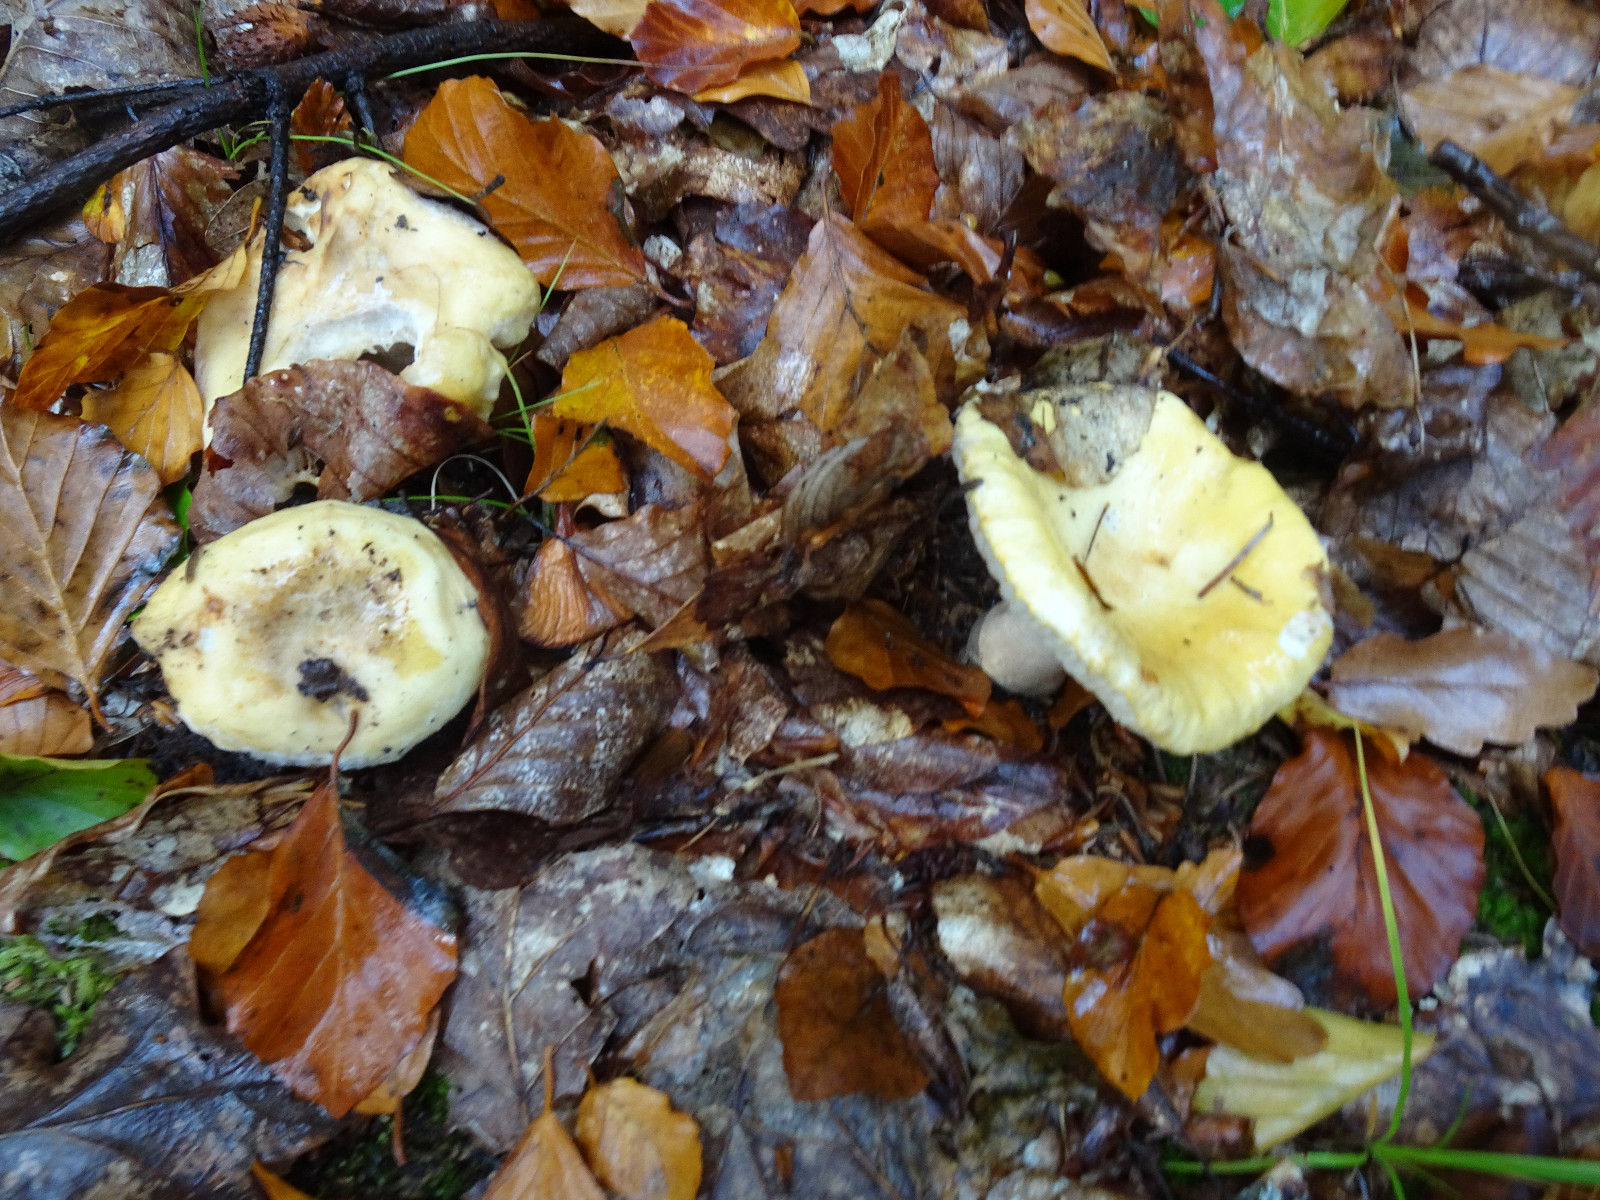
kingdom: Fungi
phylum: Basidiomycota
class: Agaricomycetes
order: Russulales
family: Russulaceae
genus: Russula
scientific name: Russula ochroleuca
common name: okkergul skørhat
